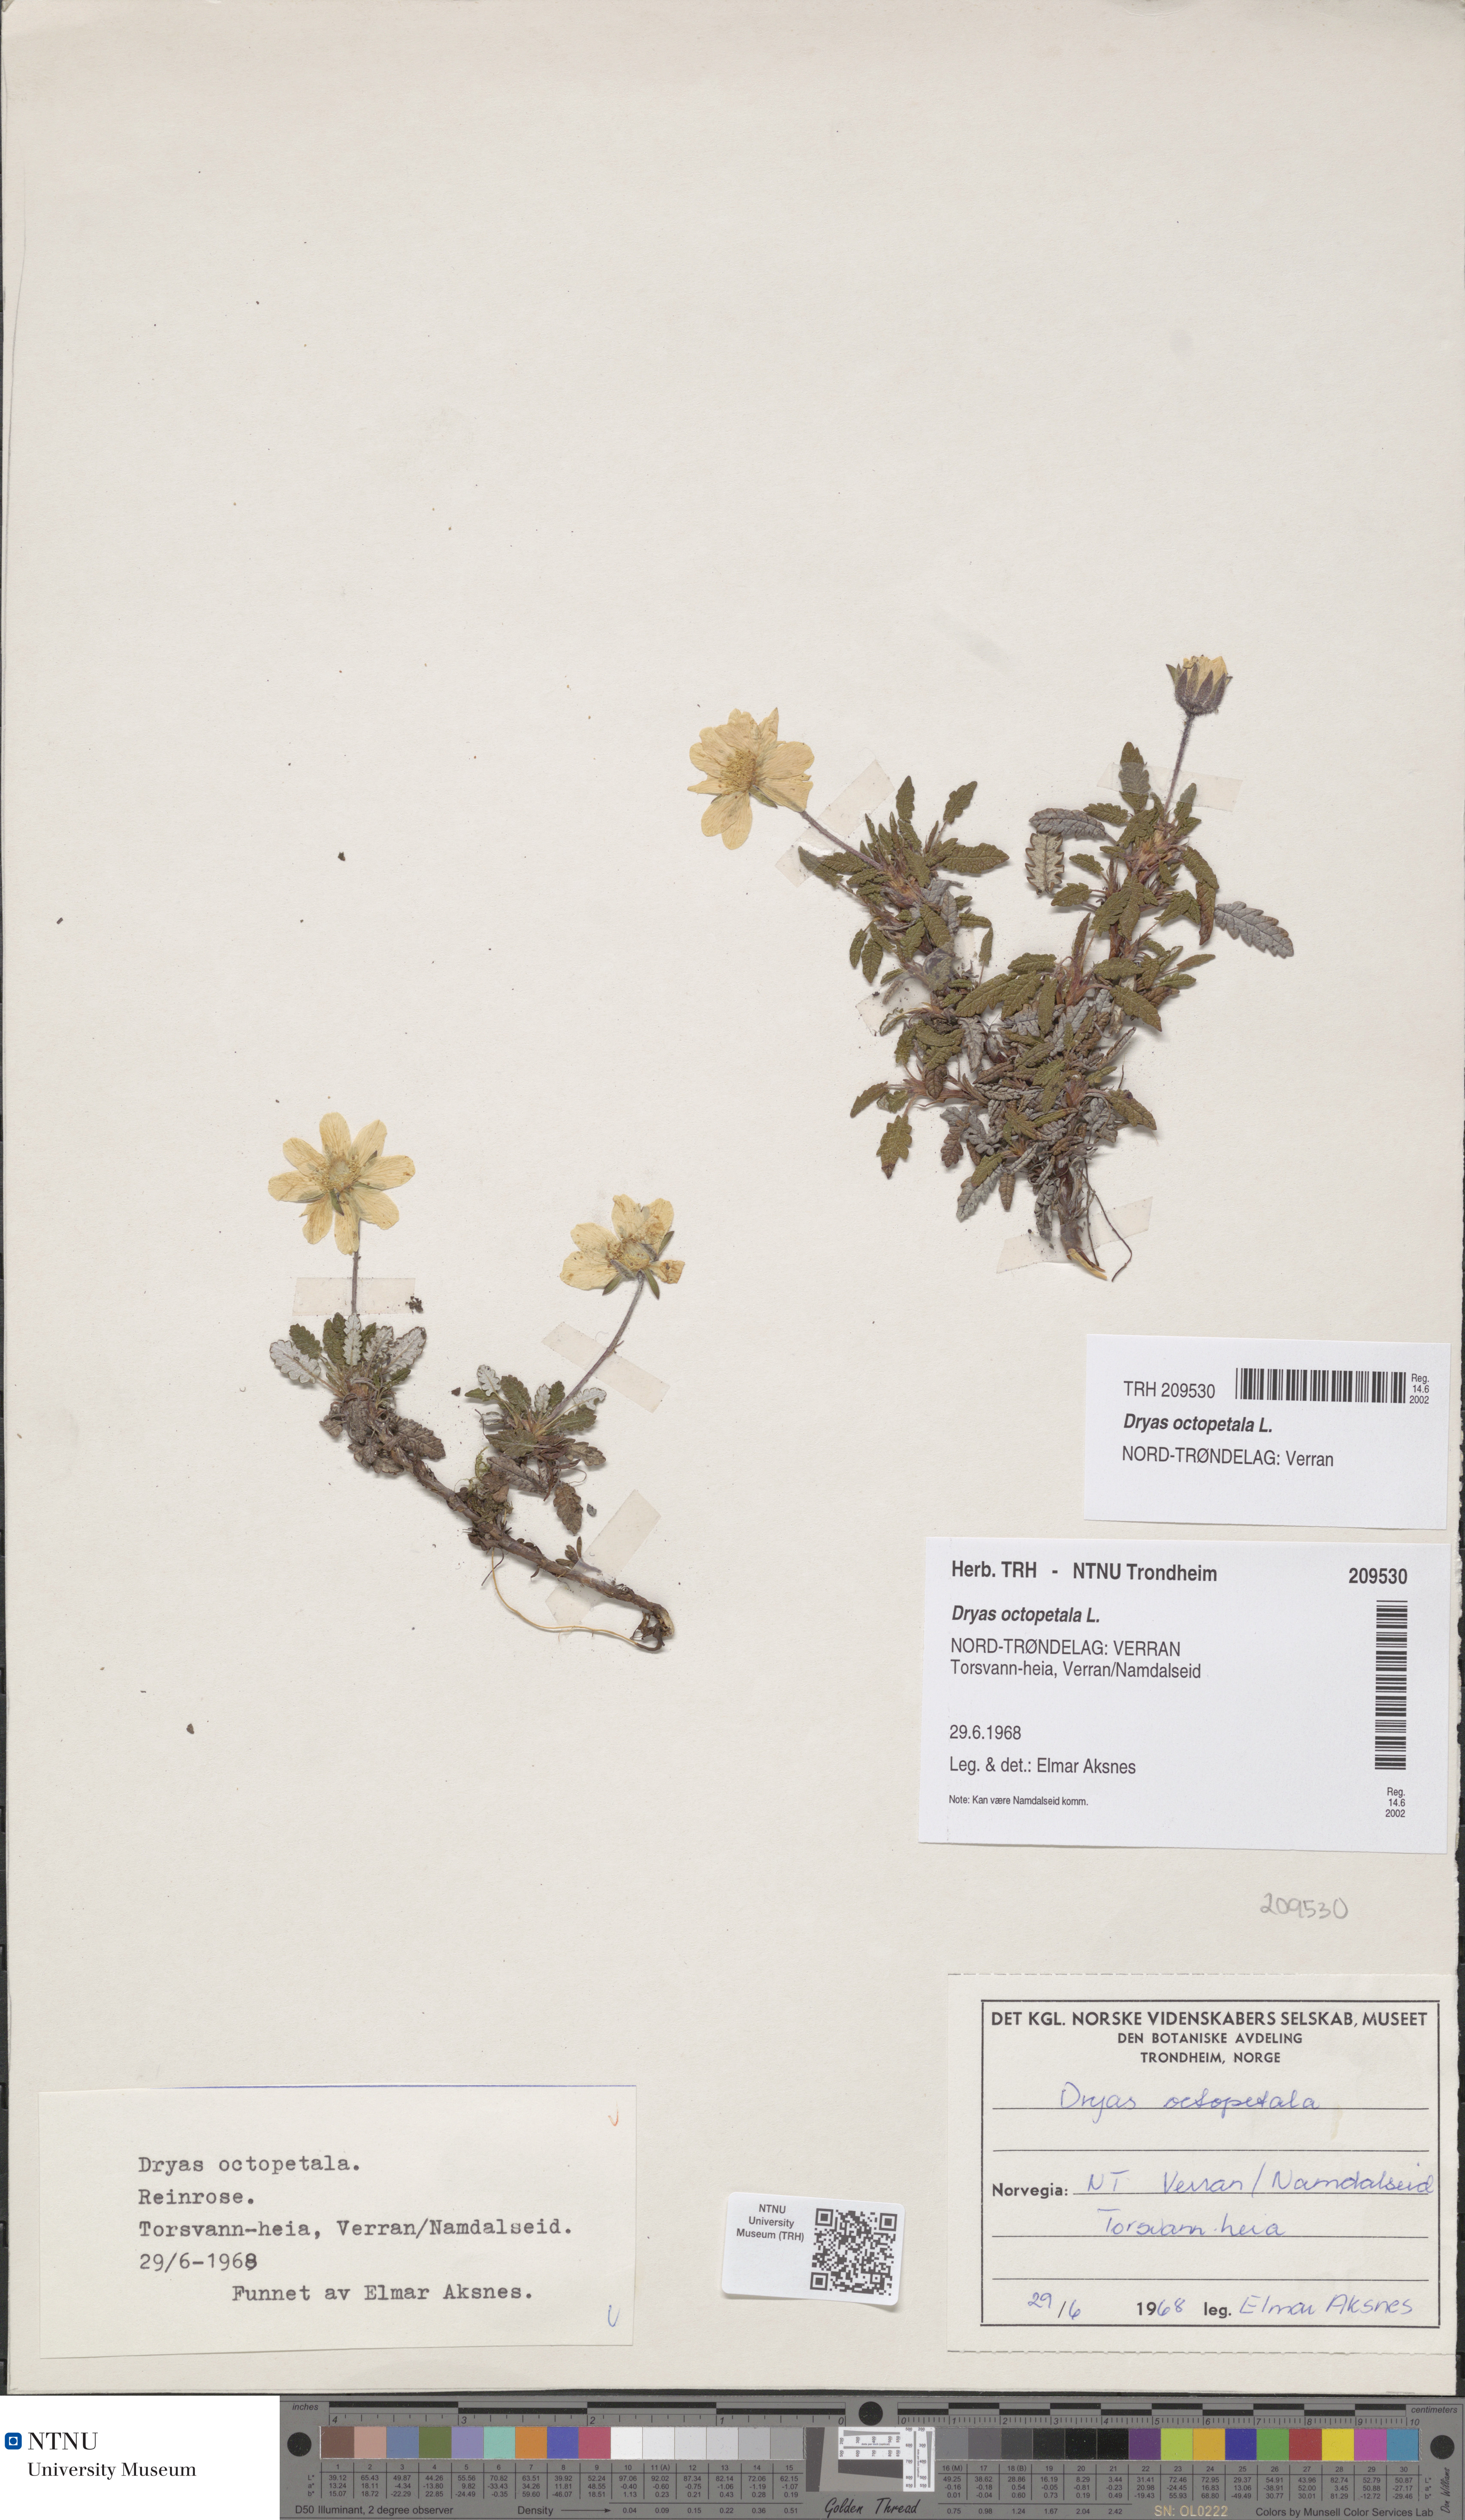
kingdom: Plantae
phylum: Tracheophyta
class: Magnoliopsida
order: Rosales
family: Rosaceae
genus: Dryas
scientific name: Dryas octopetala
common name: Eight-petal mountain-avens
